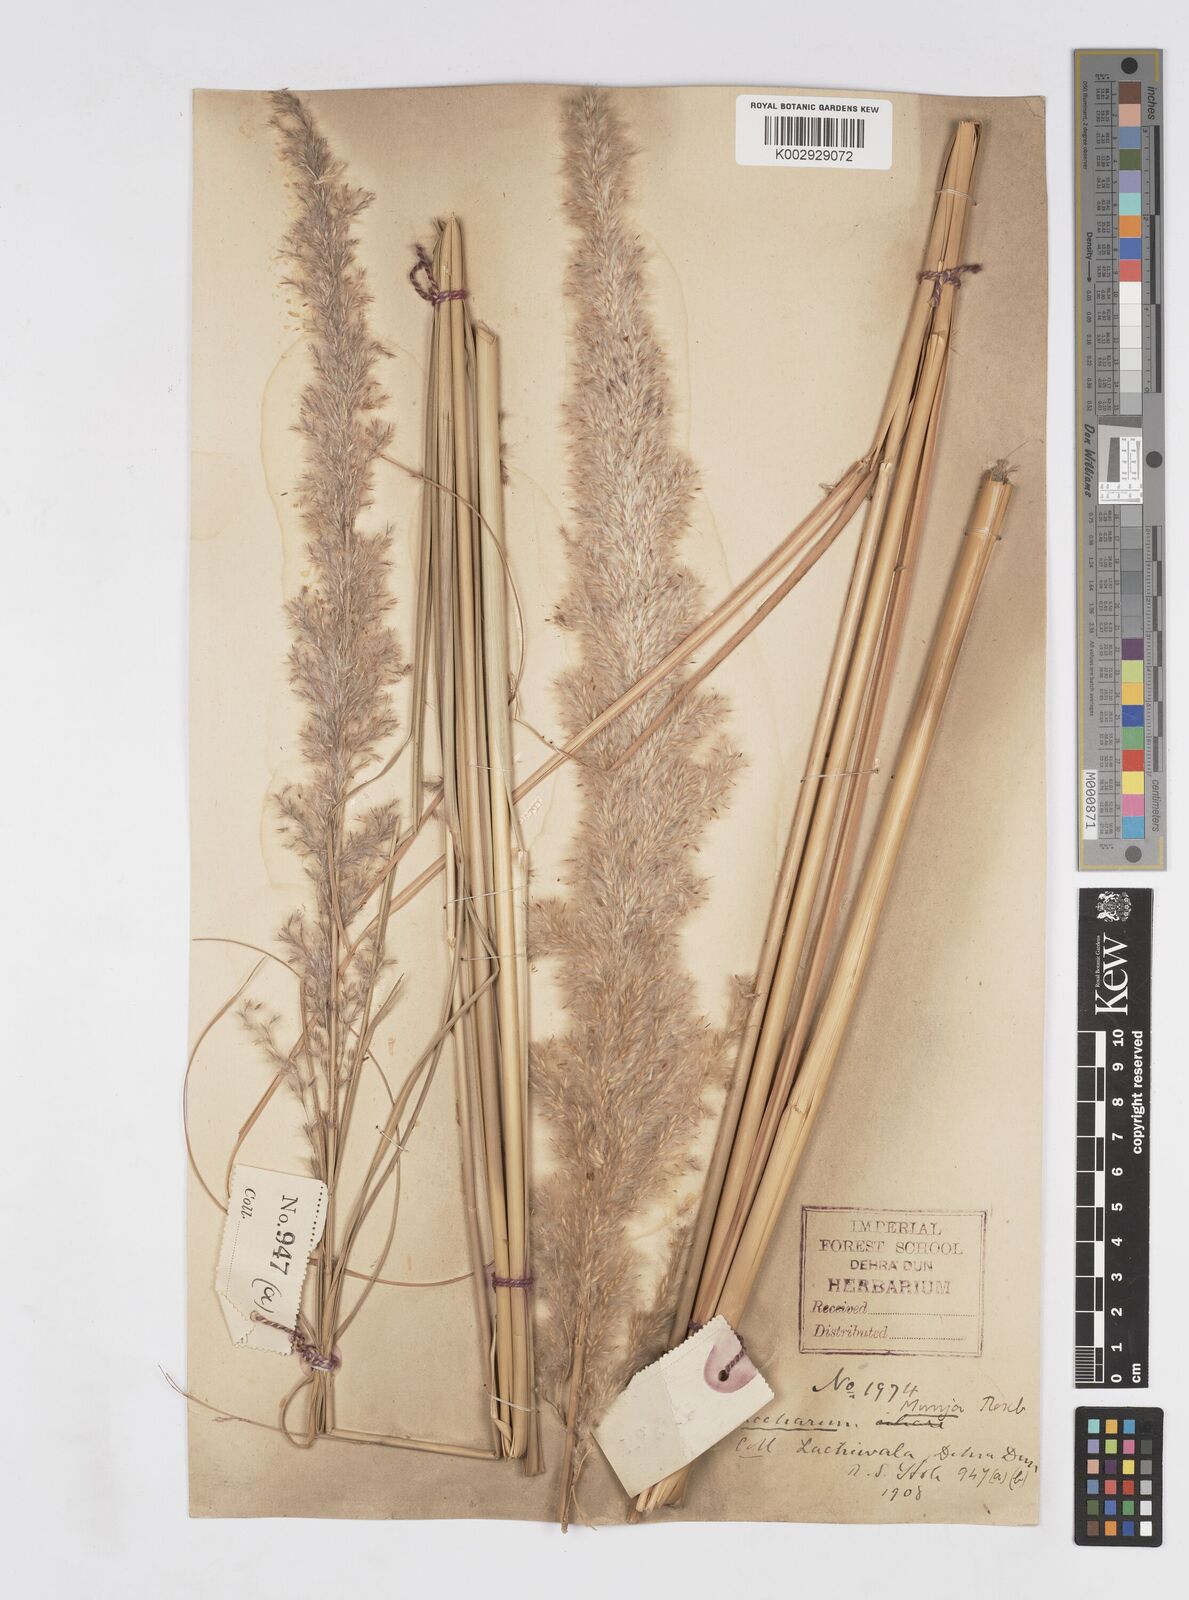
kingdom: Plantae
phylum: Tracheophyta
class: Liliopsida
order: Poales
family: Poaceae
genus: Tripidium
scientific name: Tripidium bengalense
